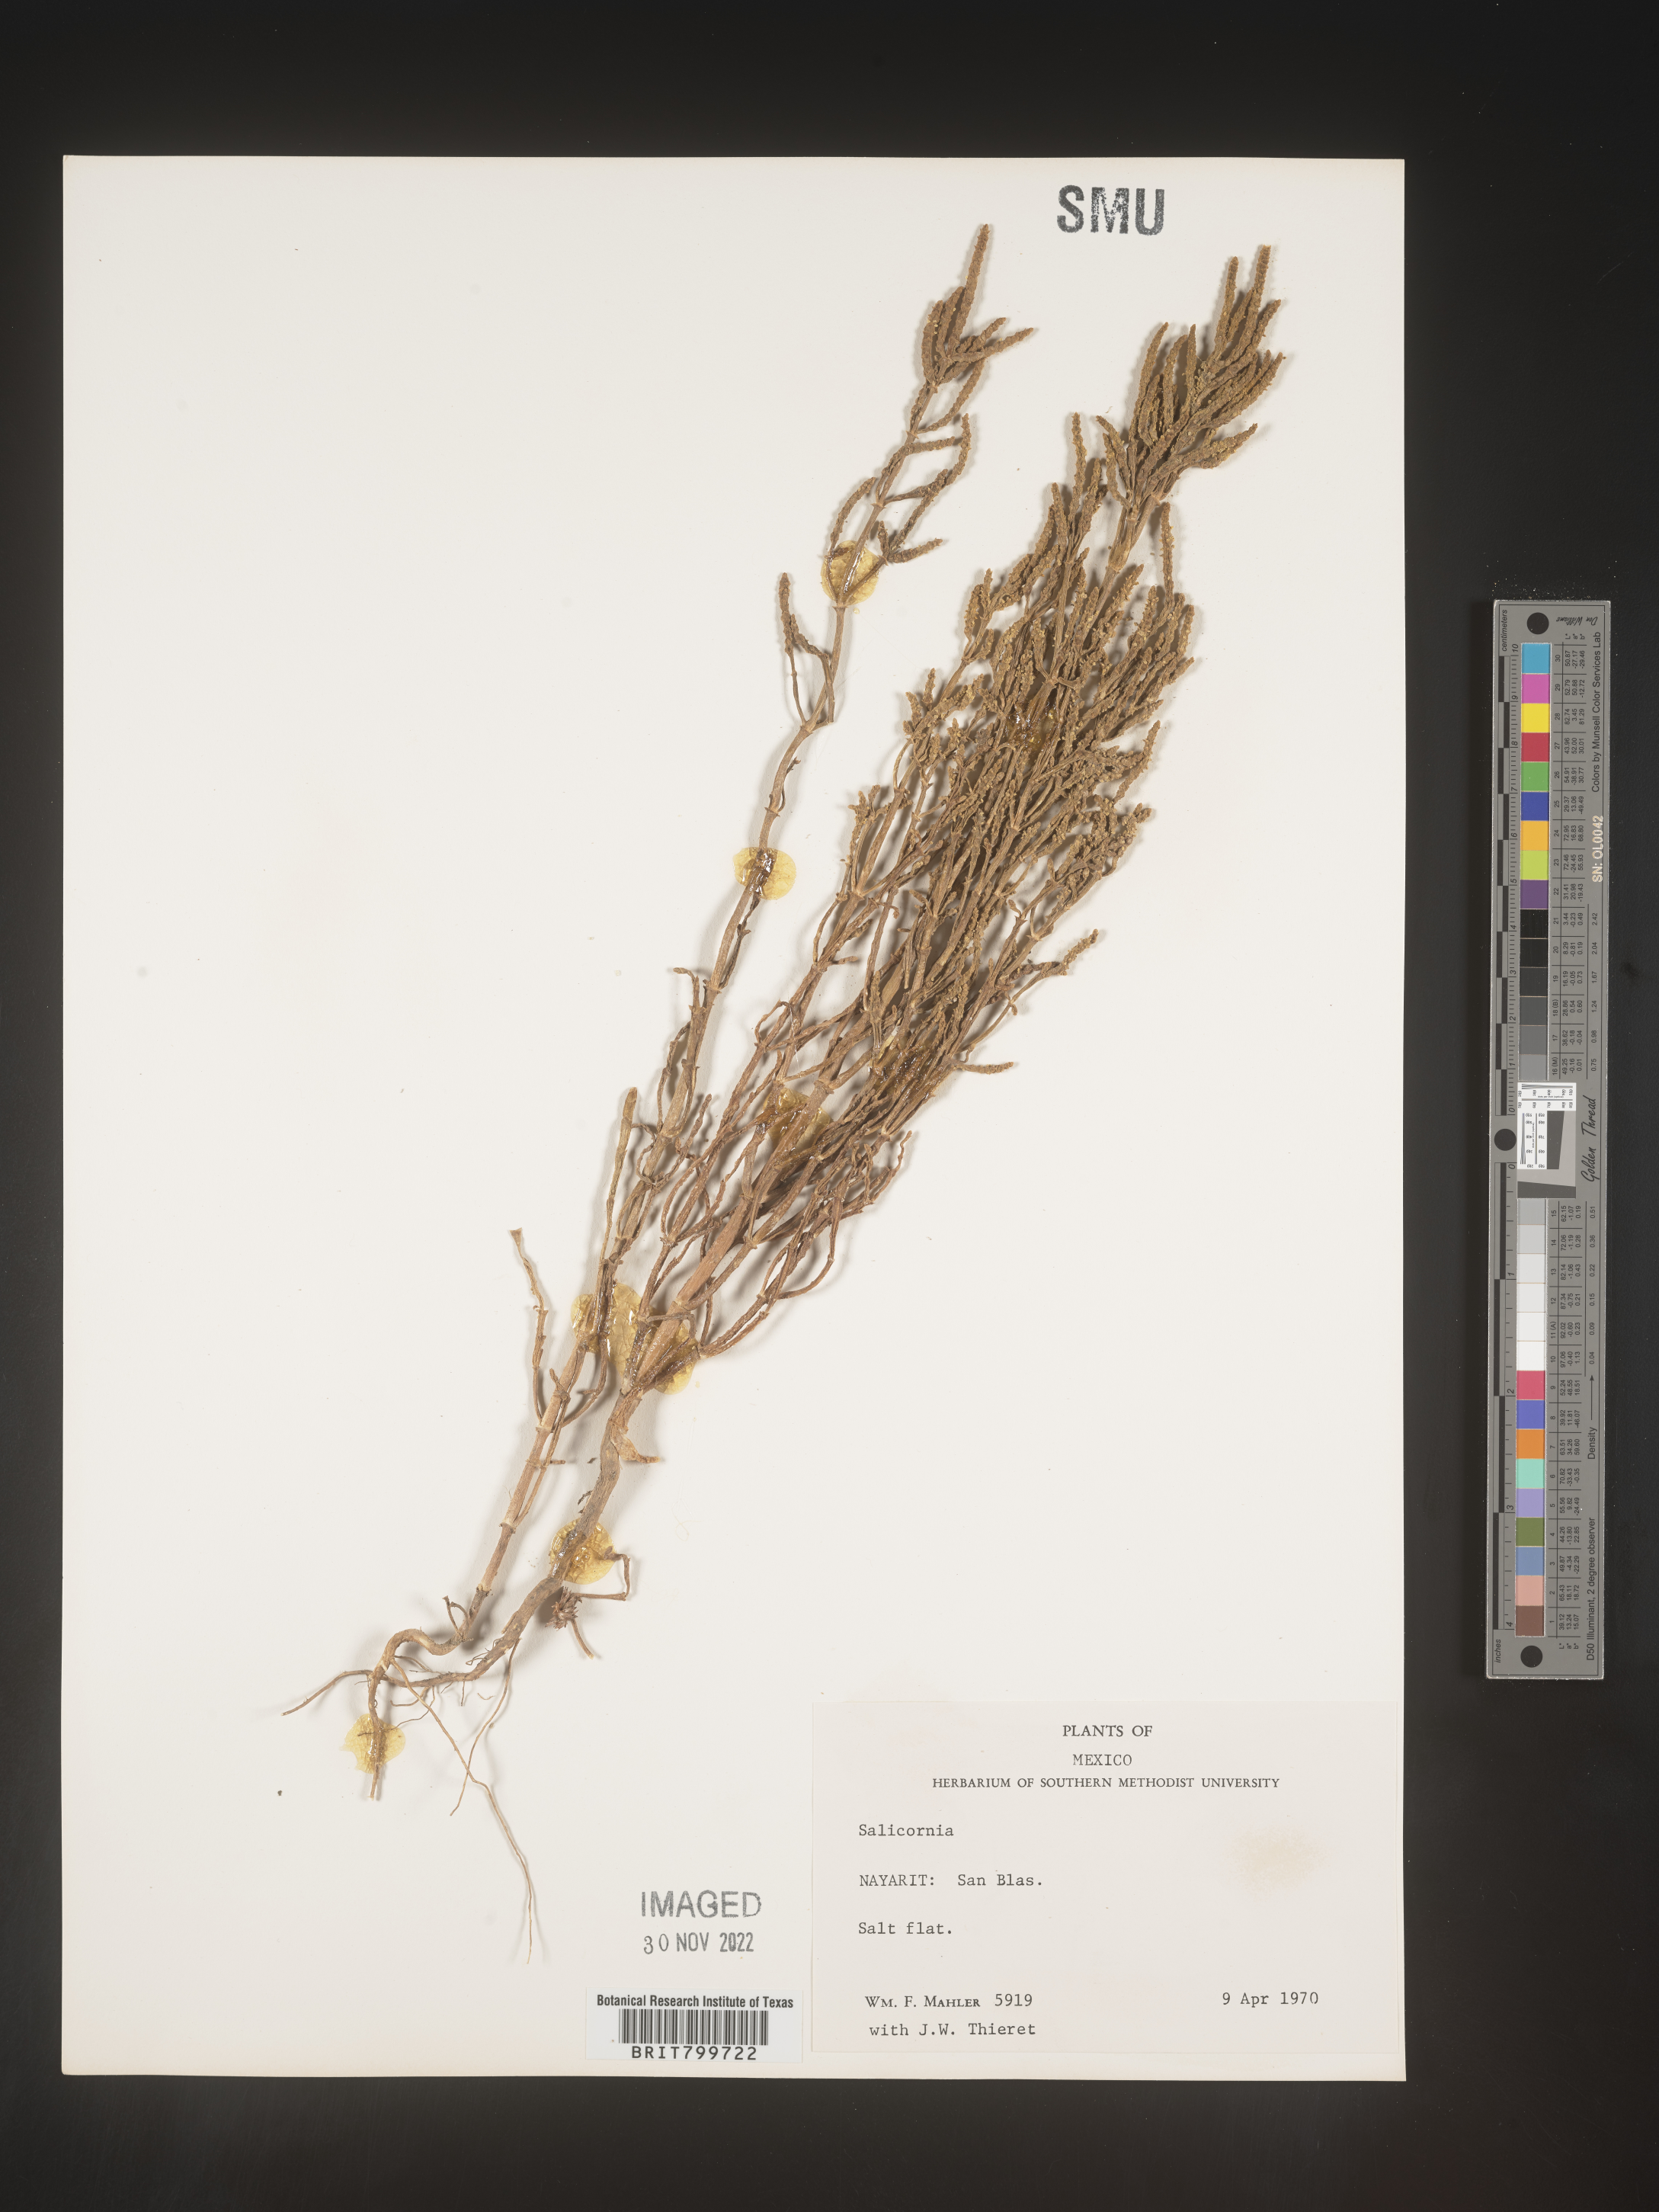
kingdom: Plantae
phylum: Tracheophyta
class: Magnoliopsida
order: Caryophyllales
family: Amaranthaceae
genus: Salicornia
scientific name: Salicornia
